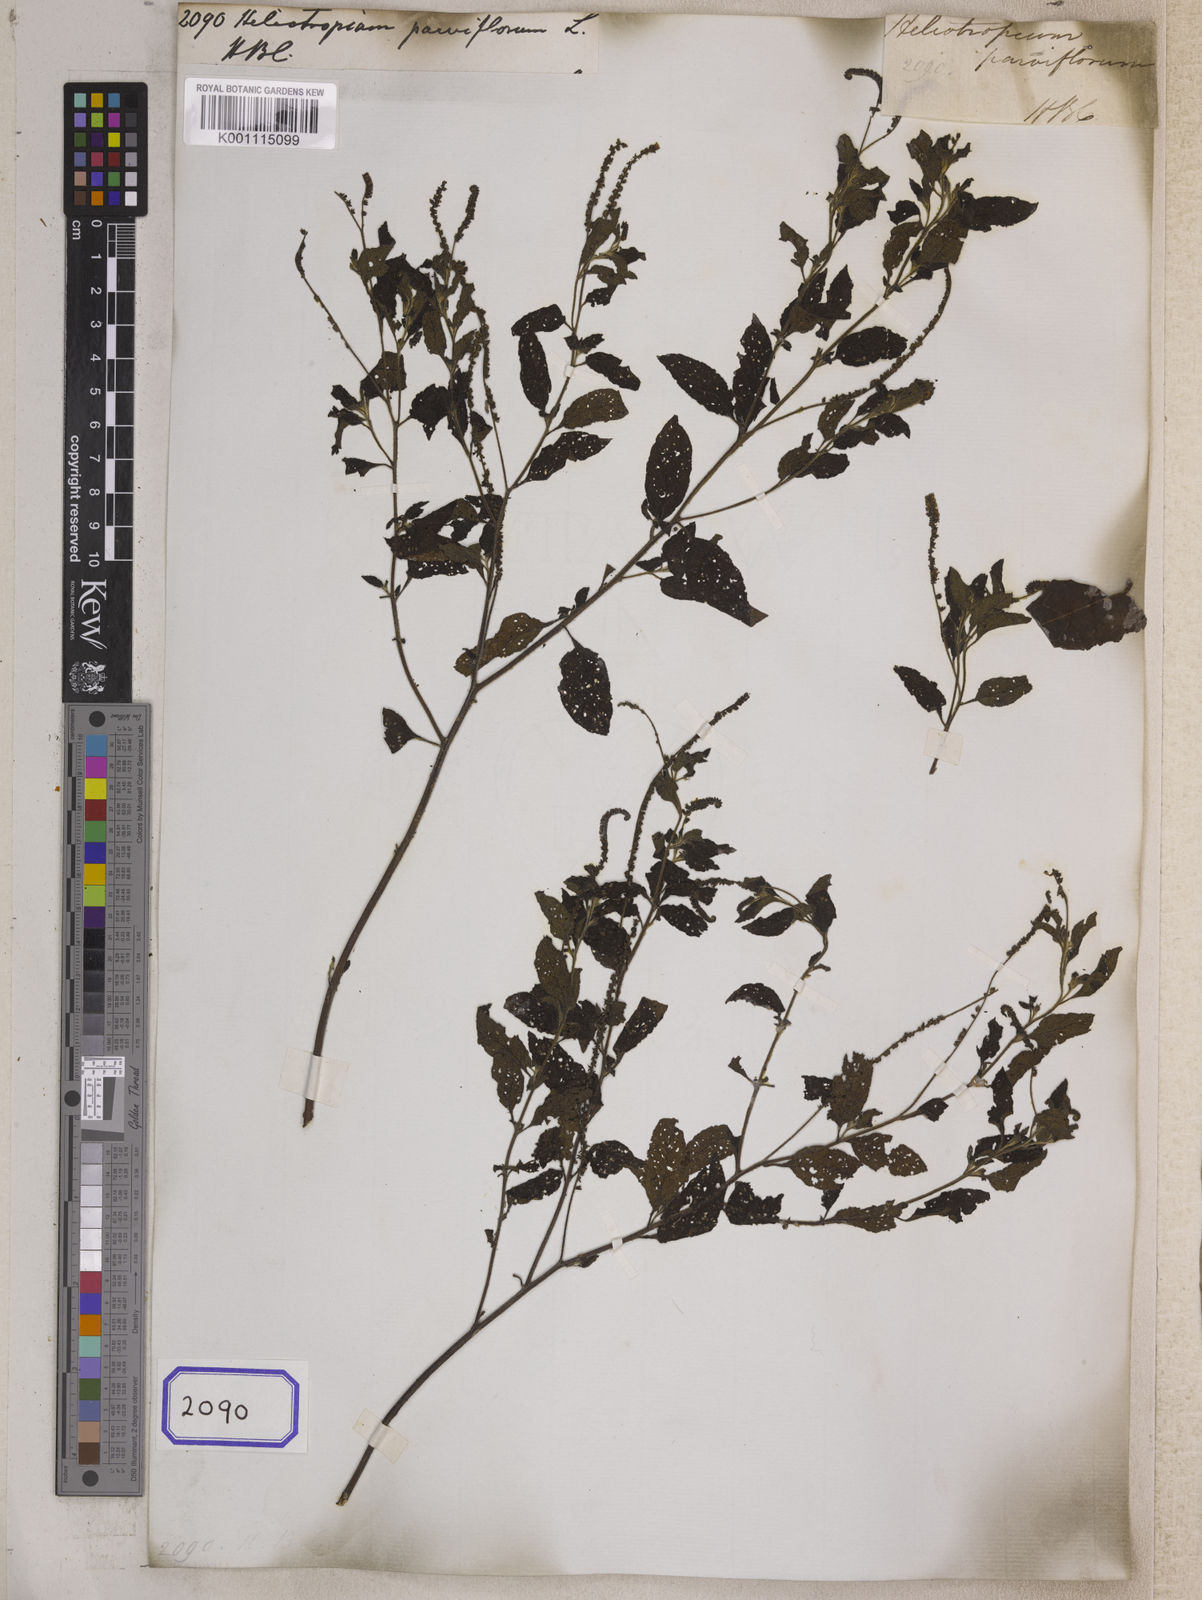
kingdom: Plantae
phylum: Tracheophyta
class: Magnoliopsida
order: Boraginales
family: Heliotropiaceae
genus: Heliotropium
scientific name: Heliotropium angiospermum
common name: Eye bright
